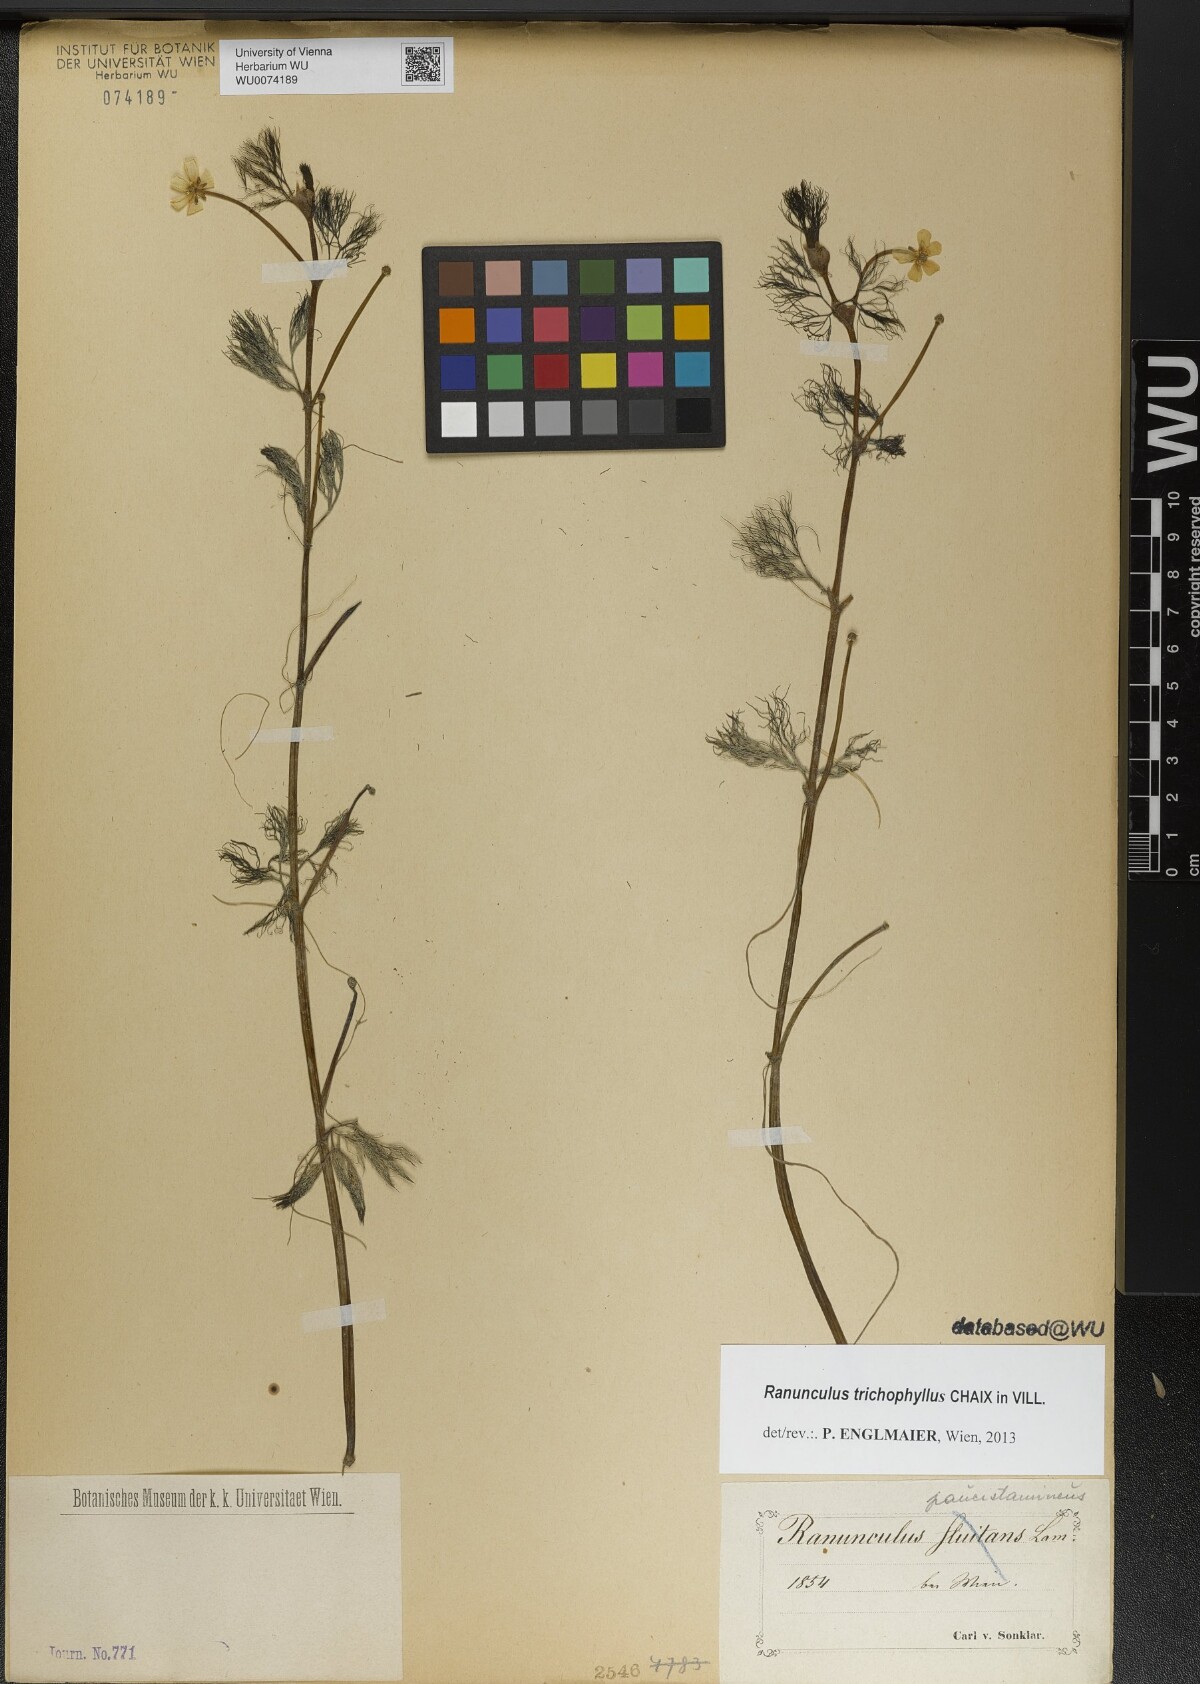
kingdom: Plantae
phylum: Tracheophyta
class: Magnoliopsida
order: Ranunculales
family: Ranunculaceae
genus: Ranunculus
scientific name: Ranunculus trichophyllus
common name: Thread-leaved water-crowfoot
